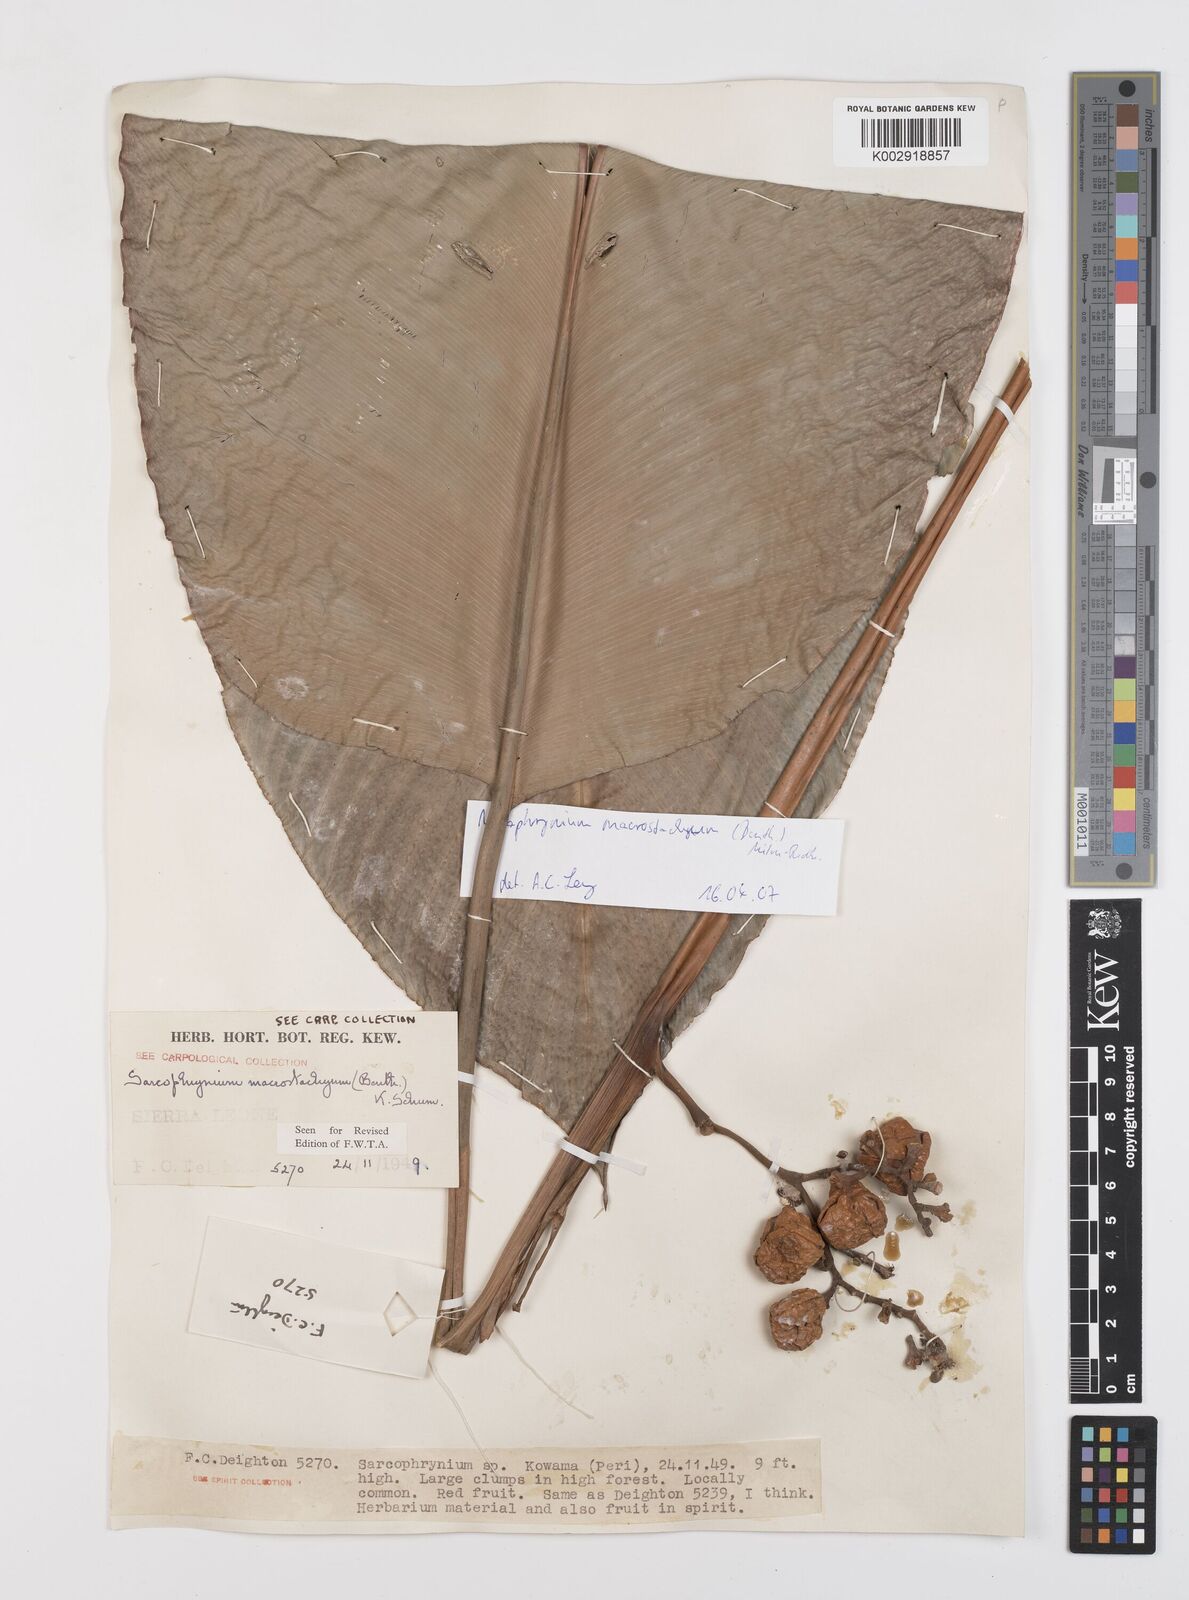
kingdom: Plantae
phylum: Tracheophyta
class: Liliopsida
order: Zingiberales
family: Marantaceae
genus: Megaphrynium
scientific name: Megaphrynium macrostachyum
